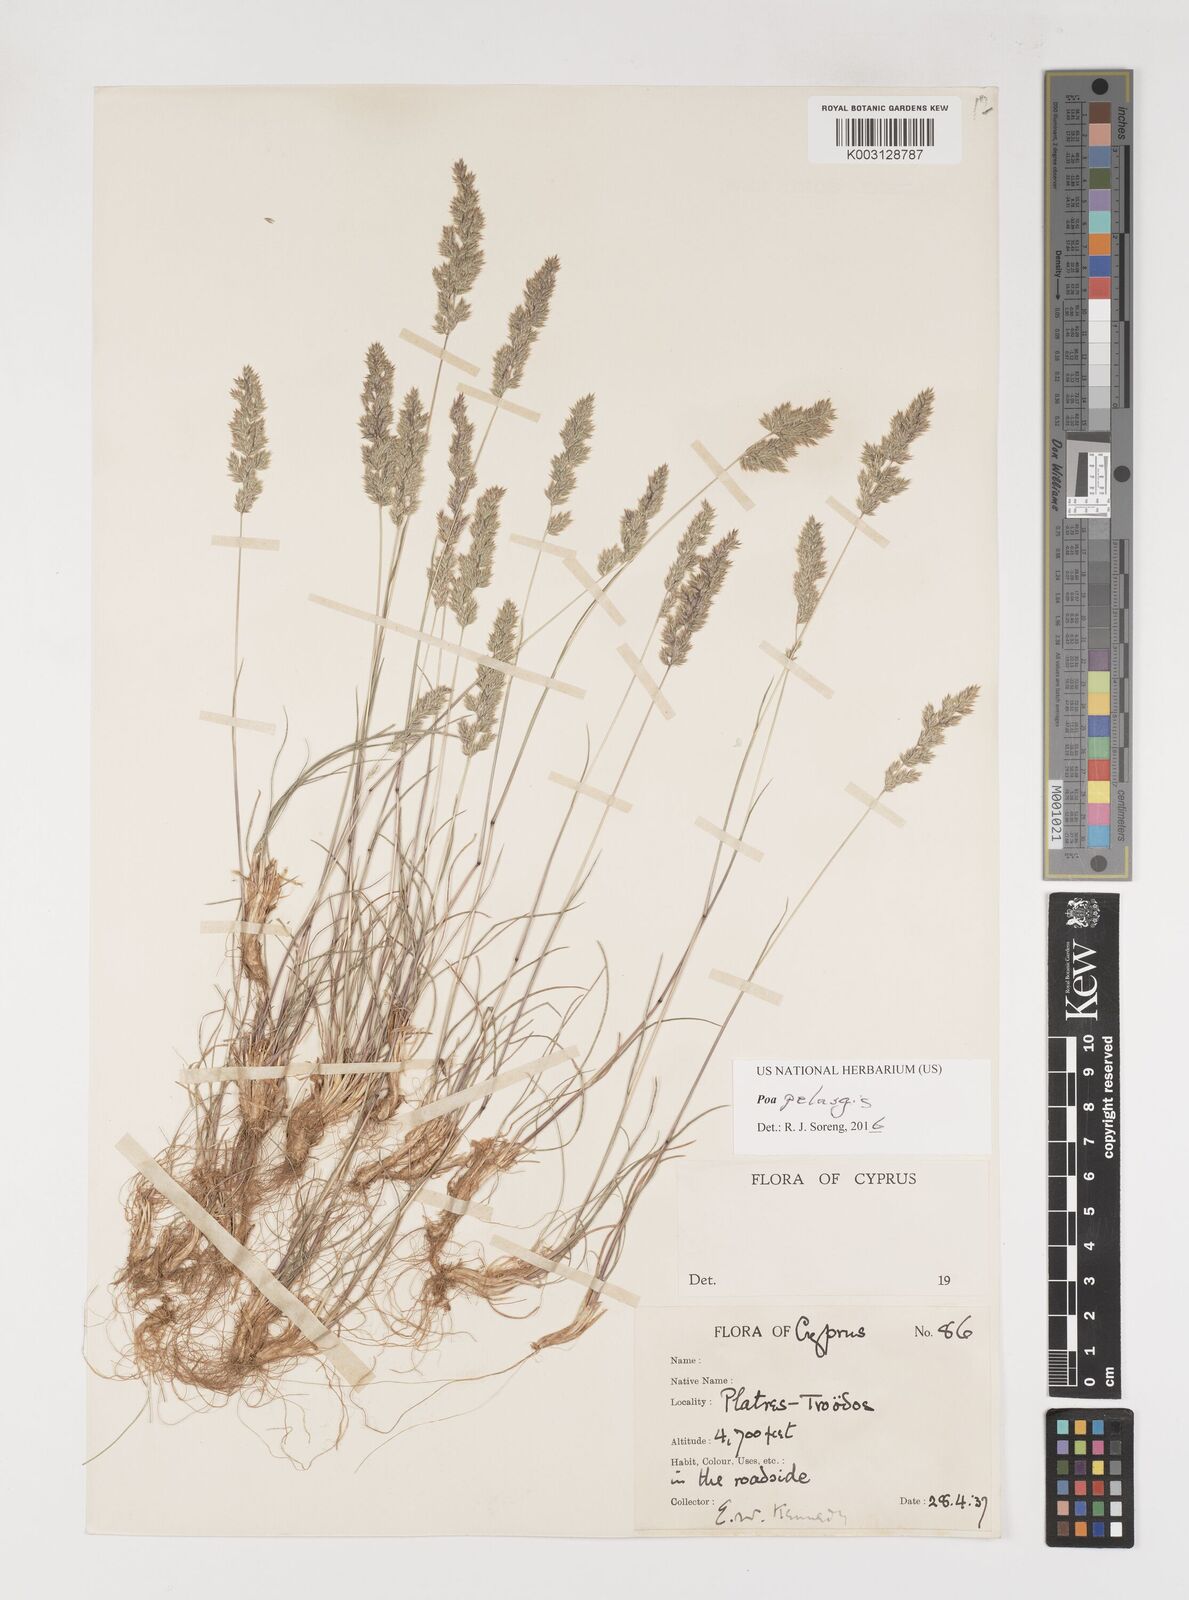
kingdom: Plantae
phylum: Tracheophyta
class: Liliopsida
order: Poales
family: Poaceae
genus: Poa
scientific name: Poa iconia
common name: Konya bluegrass
